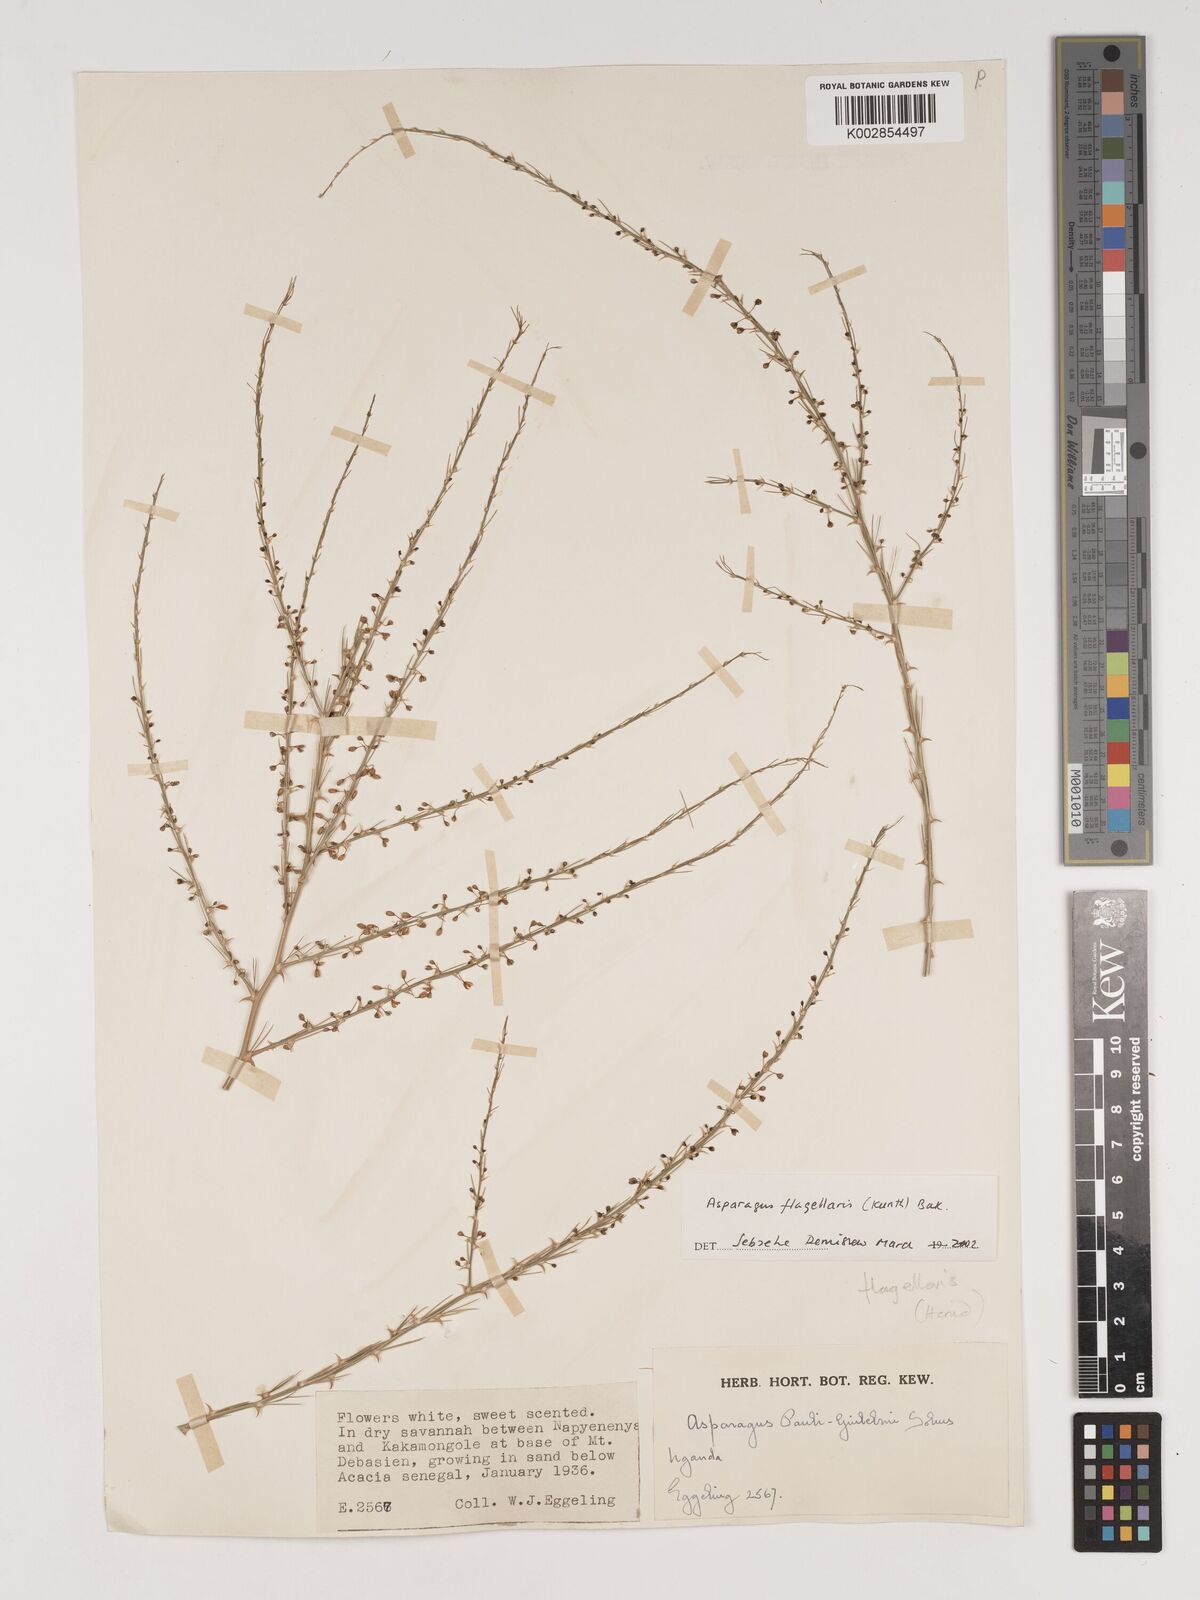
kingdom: Plantae
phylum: Tracheophyta
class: Liliopsida
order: Asparagales
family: Asparagaceae
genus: Asparagus
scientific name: Asparagus flagellaris
